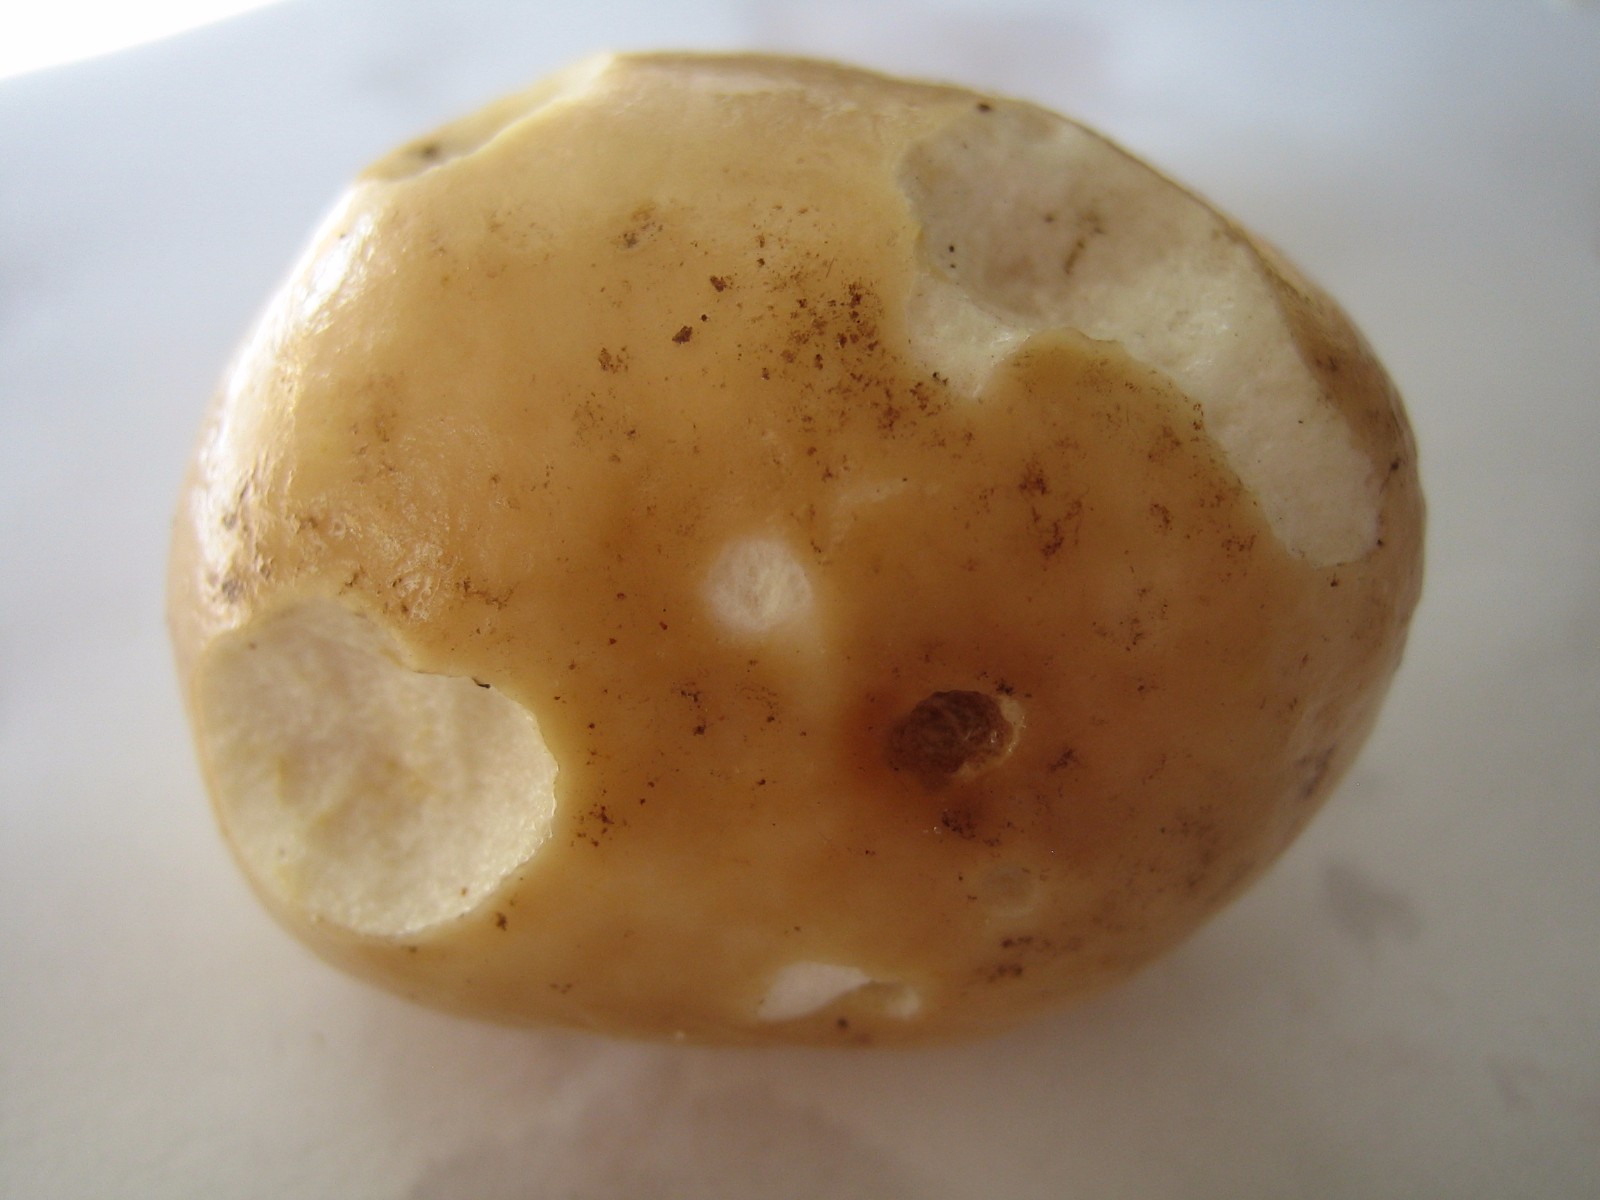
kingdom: Fungi
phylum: Basidiomycota
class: Agaricomycetes
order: Russulales
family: Russulaceae
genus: Russula
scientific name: Russula veternosa
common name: blødkødet skørhat
